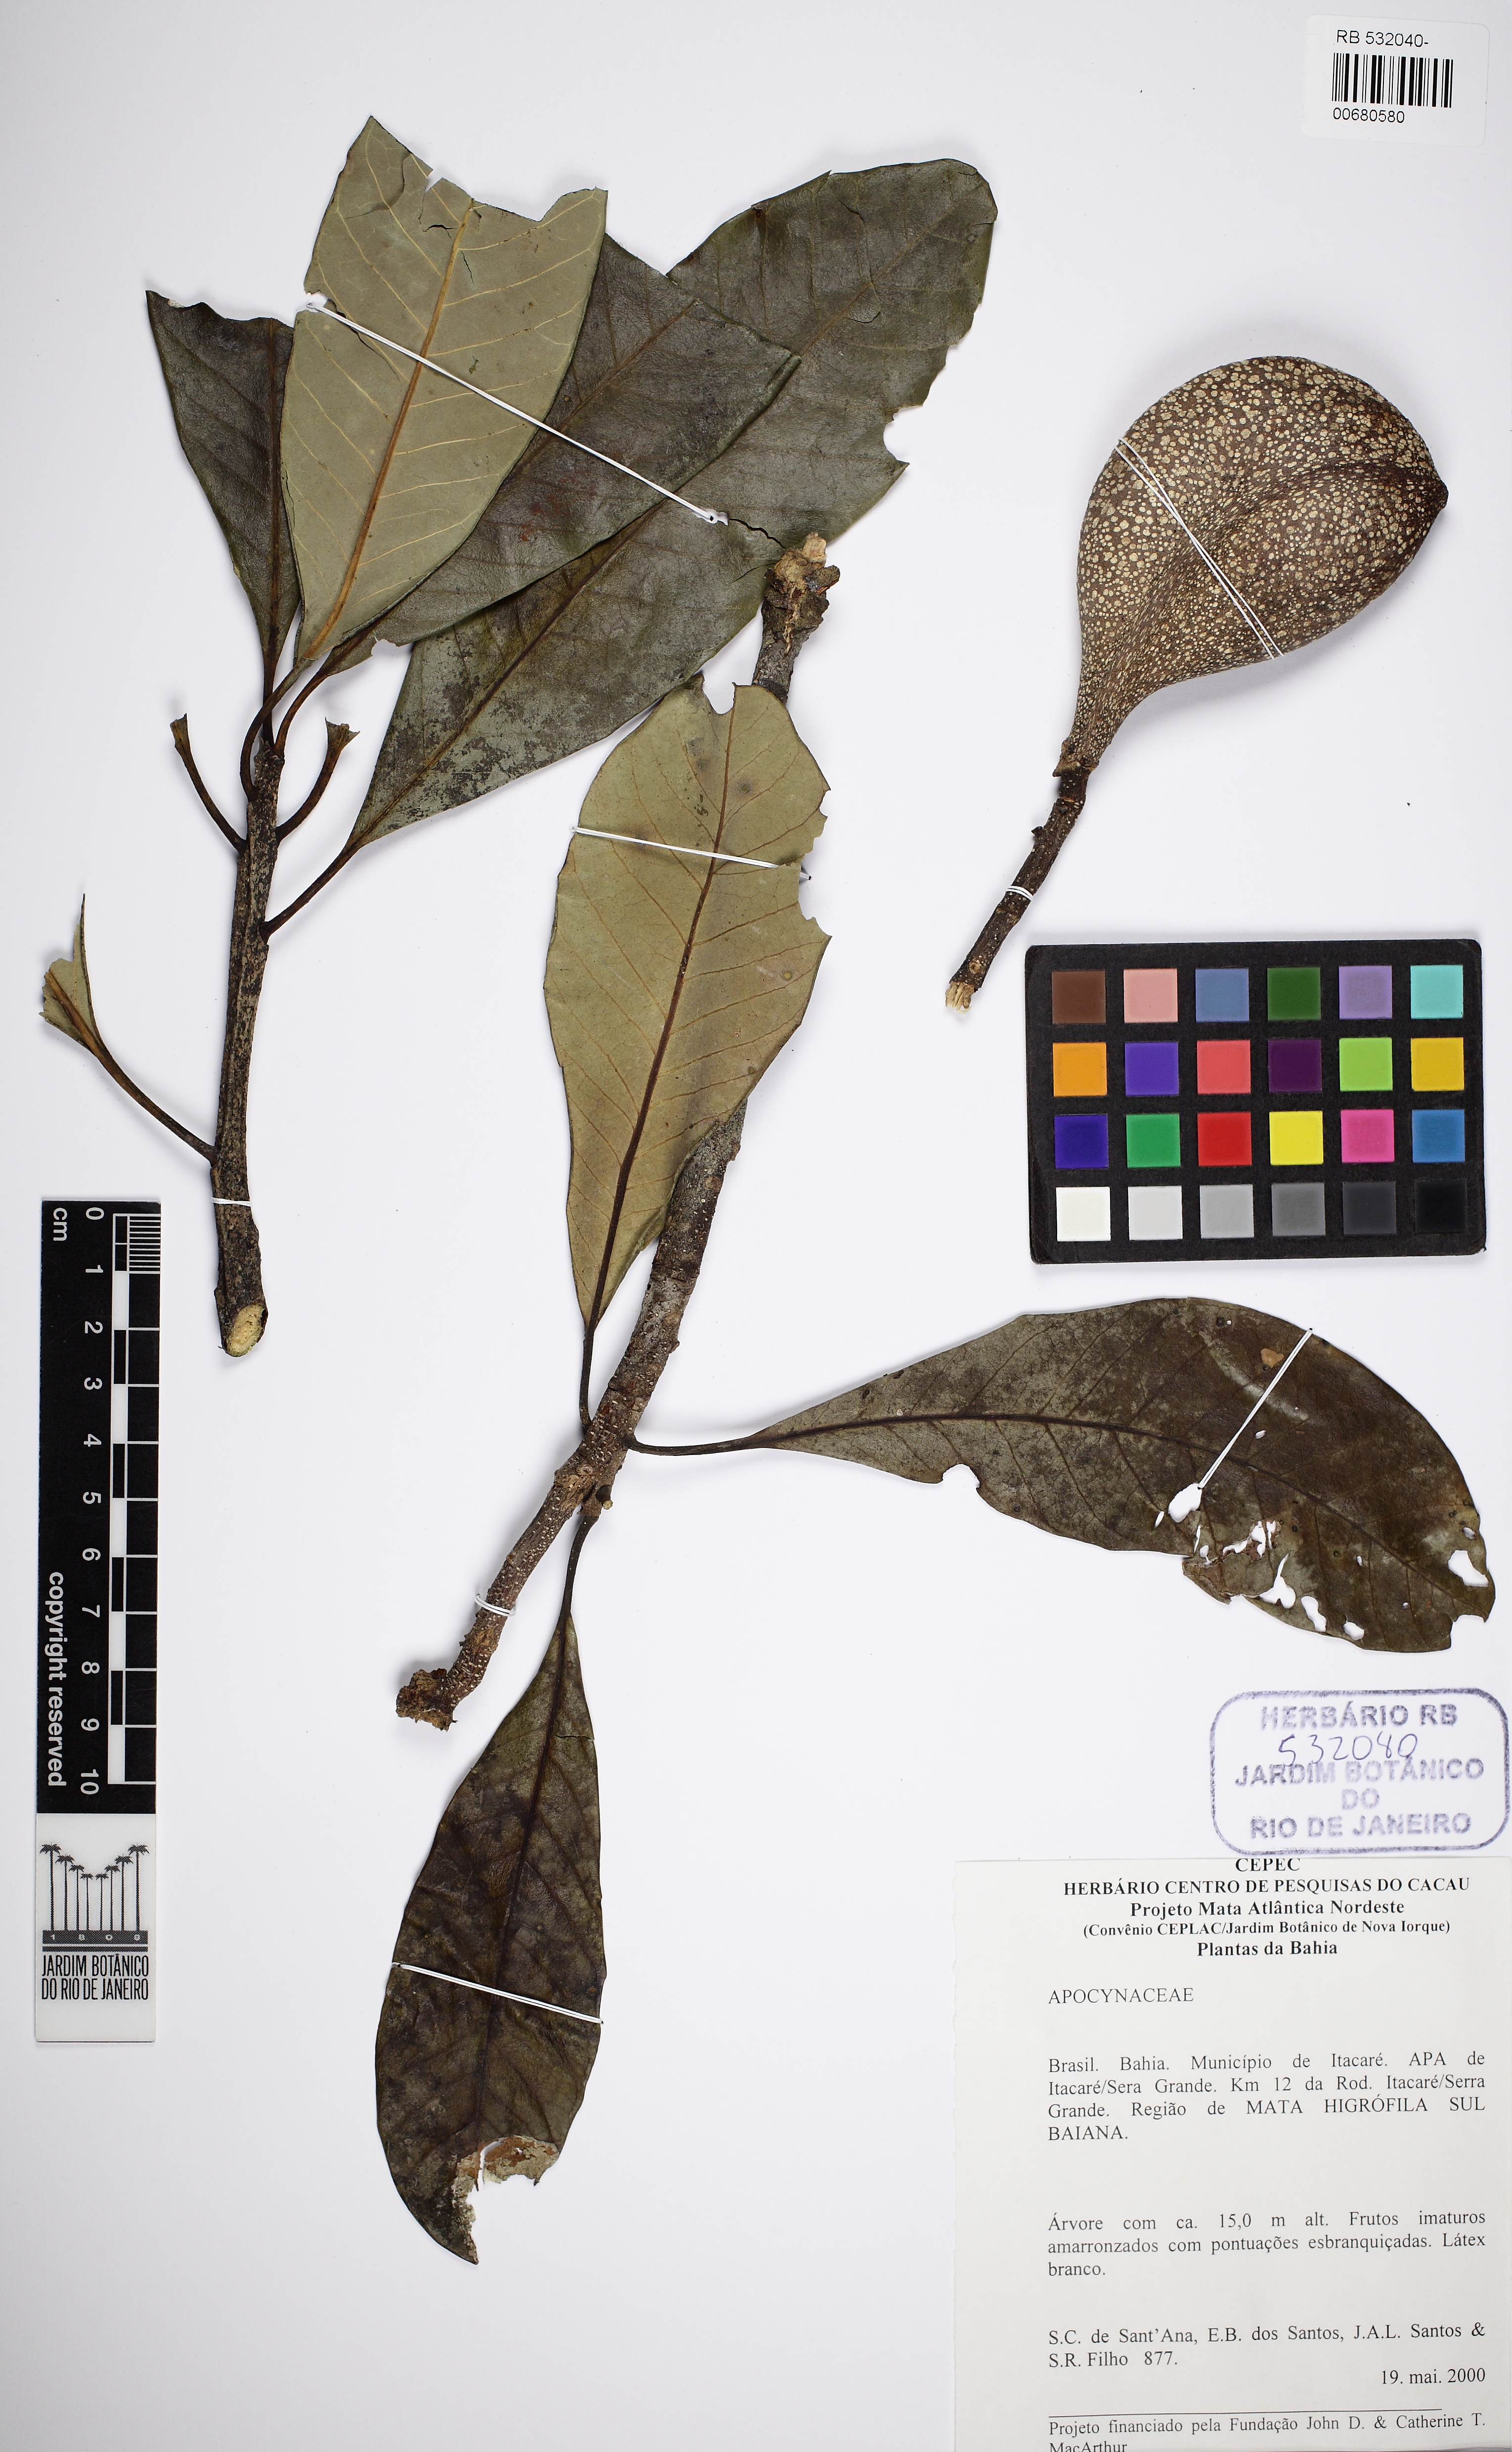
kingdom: Plantae
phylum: Tracheophyta
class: Magnoliopsida
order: Gentianales
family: Apocynaceae
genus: Aspidosperma
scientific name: Aspidosperma thomasii
